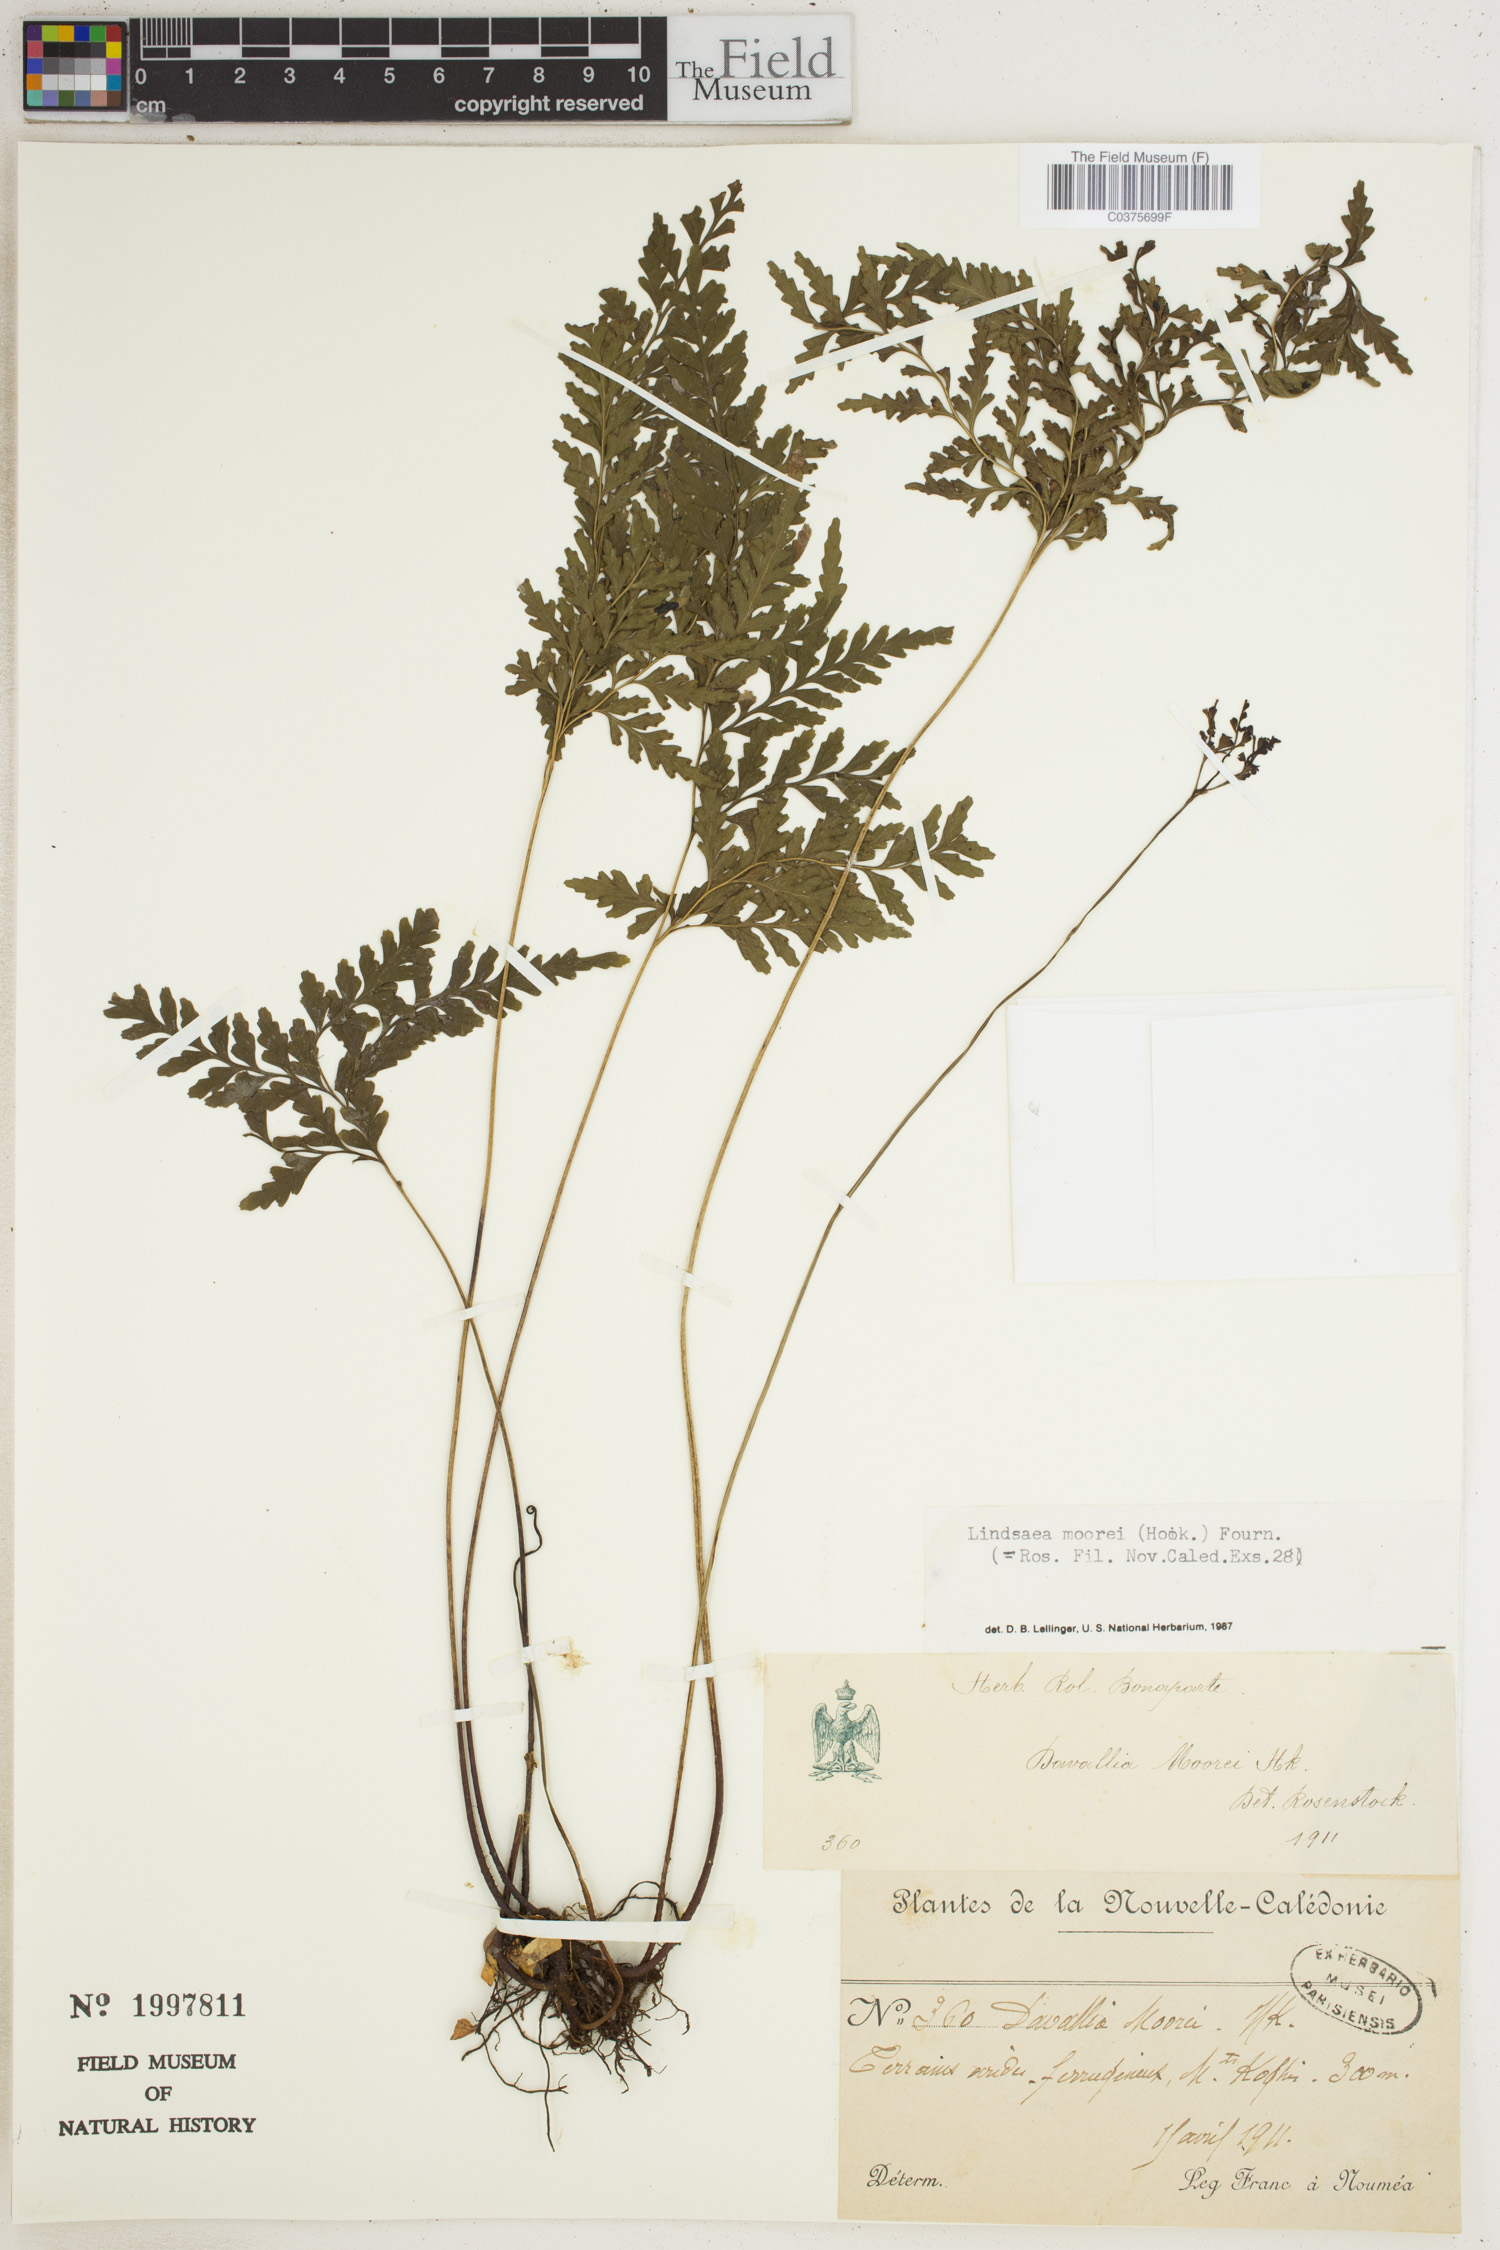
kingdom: Plantae
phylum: Tracheophyta
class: Polypodiopsida
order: Polypodiales
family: Aspleniaceae
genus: Asplenium
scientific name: Asplenium dielmannii
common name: Mann's island spleenwort
